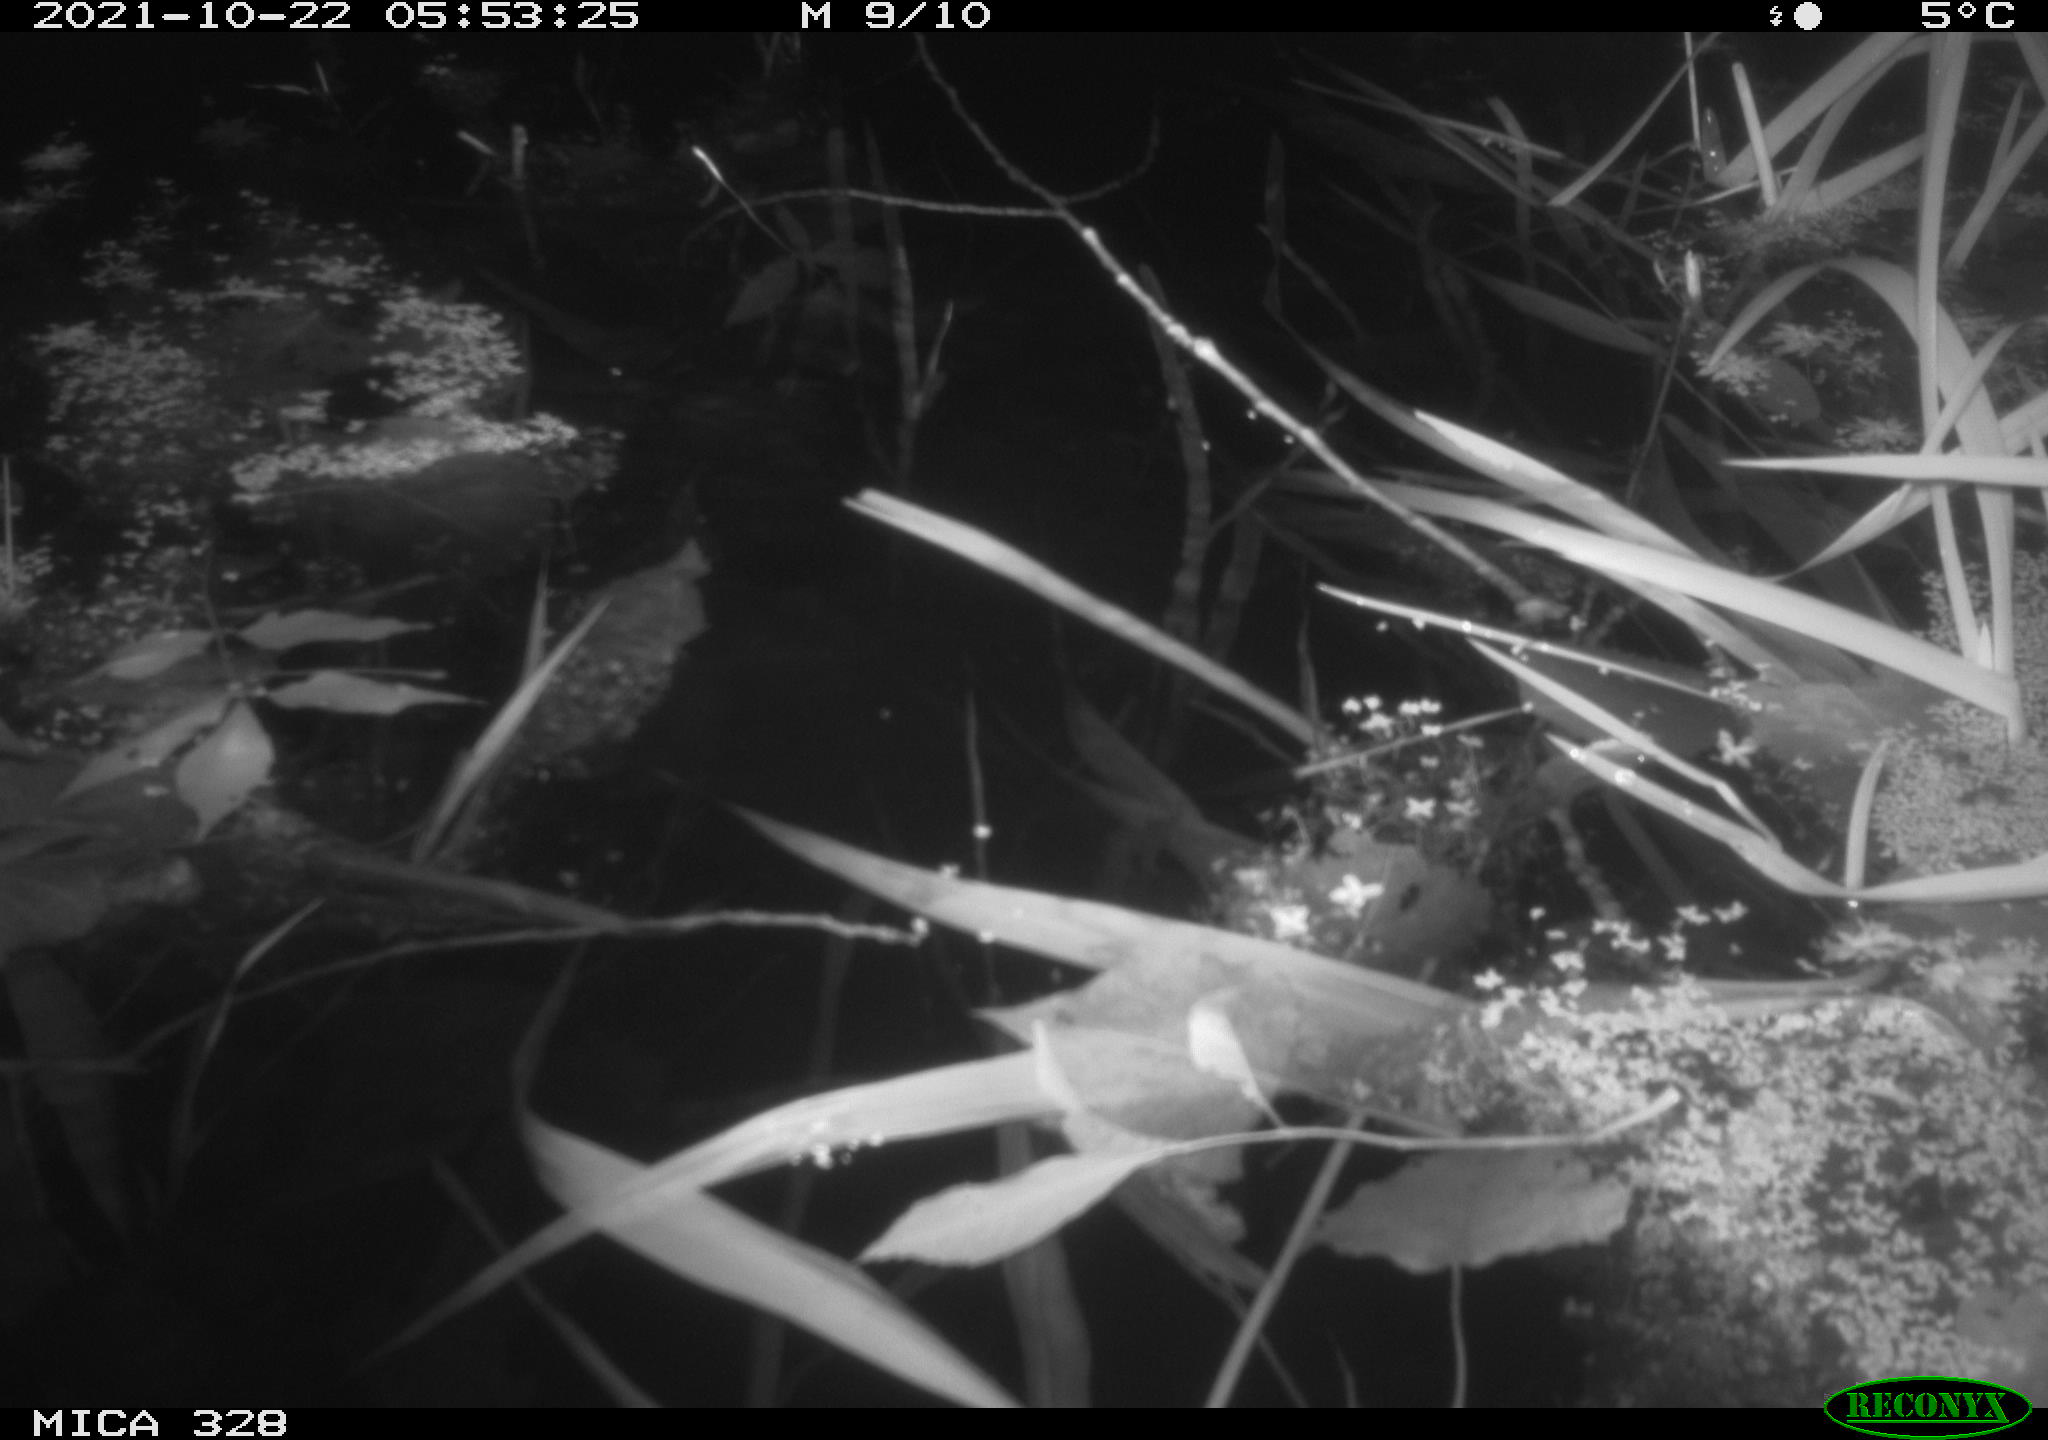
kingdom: Animalia
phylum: Chordata
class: Mammalia
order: Rodentia
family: Cricetidae
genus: Ondatra
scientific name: Ondatra zibethicus
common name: Muskrat
